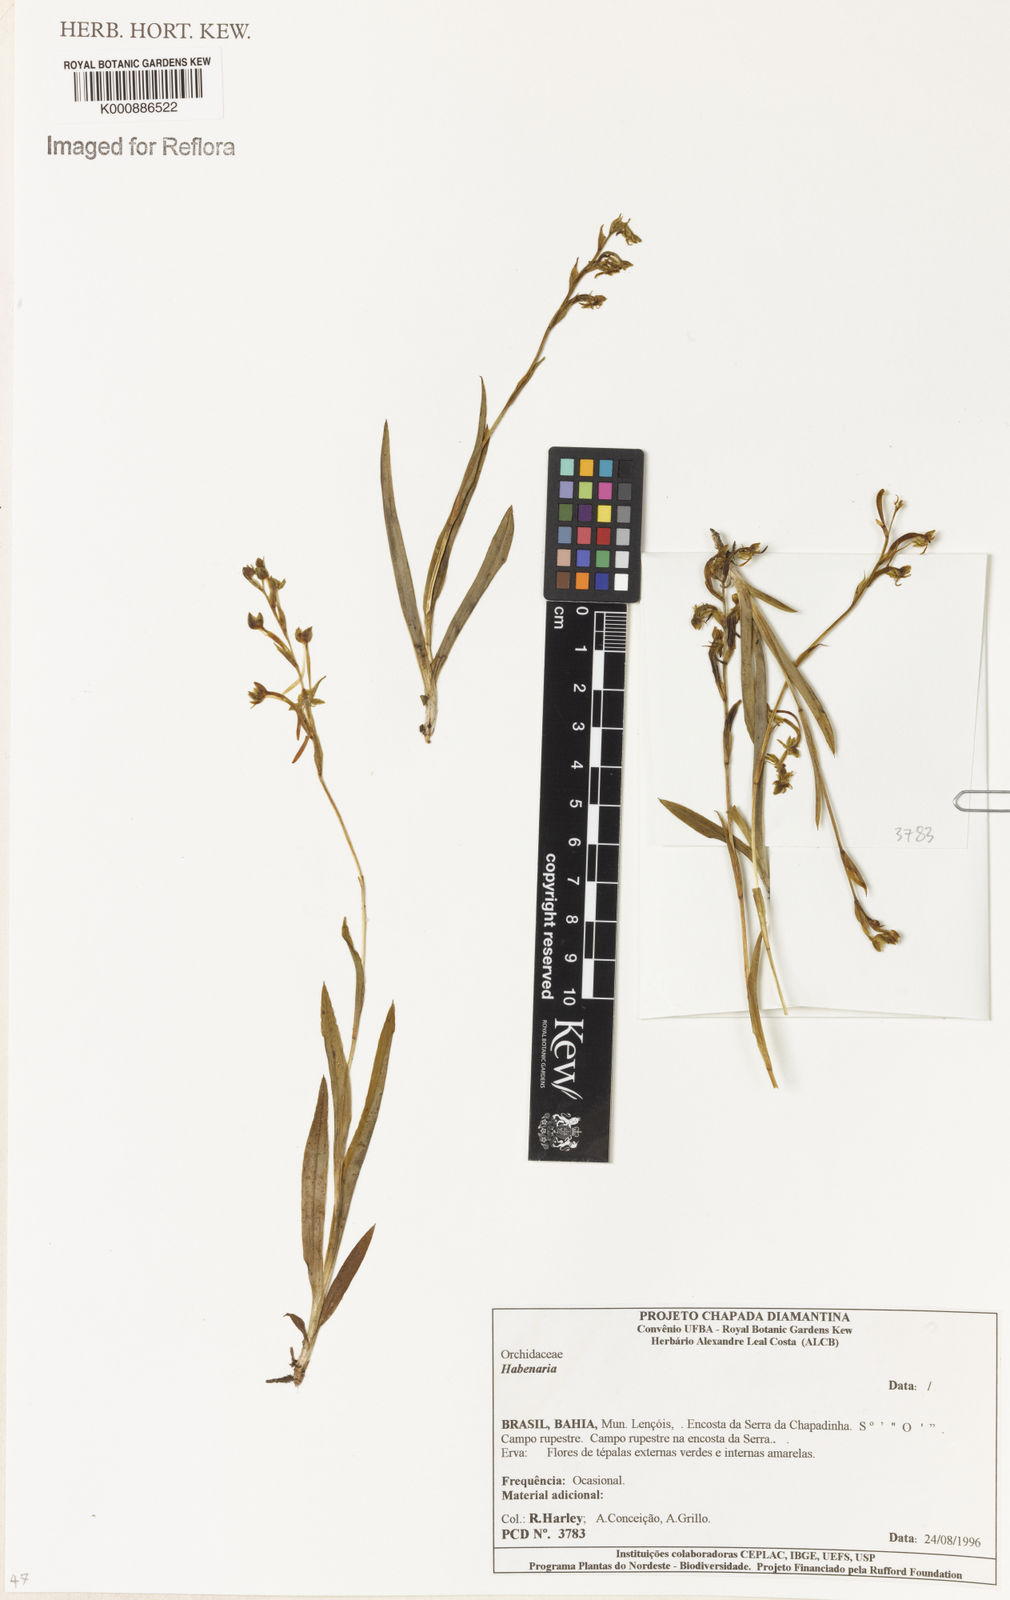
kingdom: Plantae
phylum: Tracheophyta
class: Liliopsida
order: Asparagales
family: Orchidaceae
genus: Habenaria
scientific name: Habenaria
